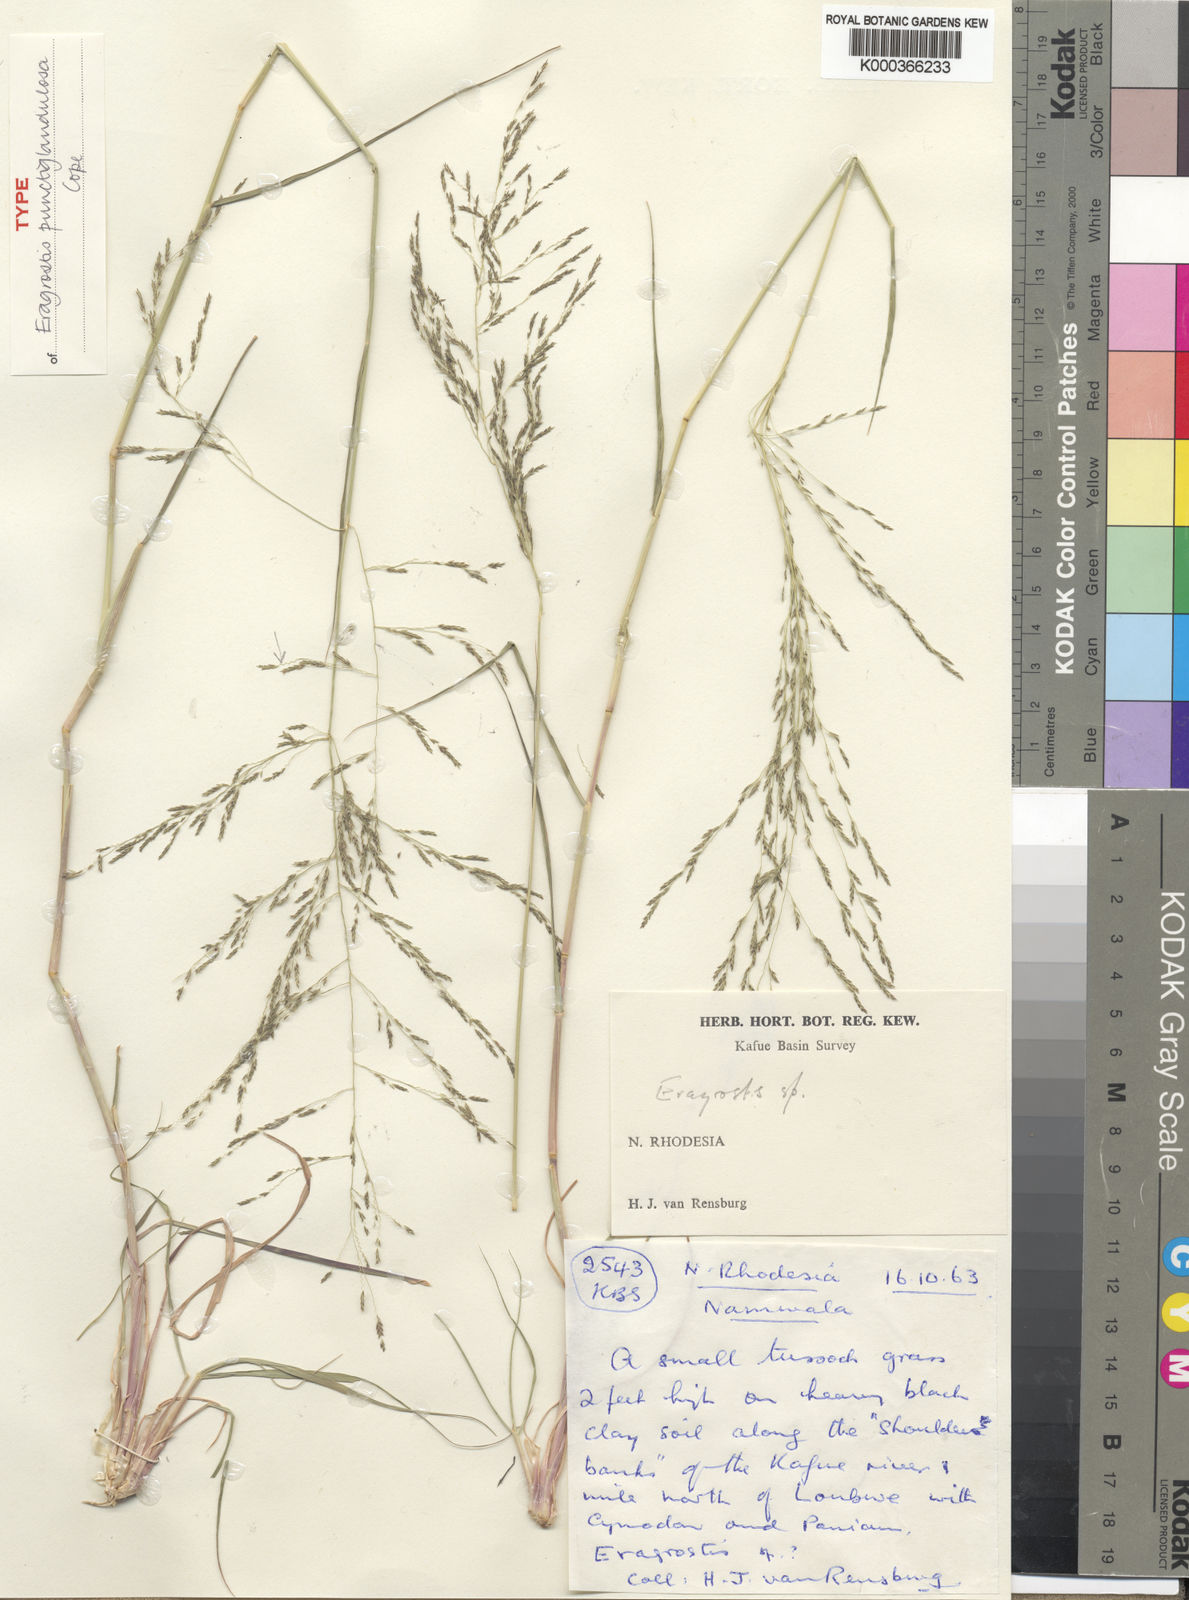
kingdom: Plantae
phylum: Tracheophyta
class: Liliopsida
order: Poales
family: Poaceae
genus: Eragrostis
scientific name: Eragrostis punctiglandulosa
